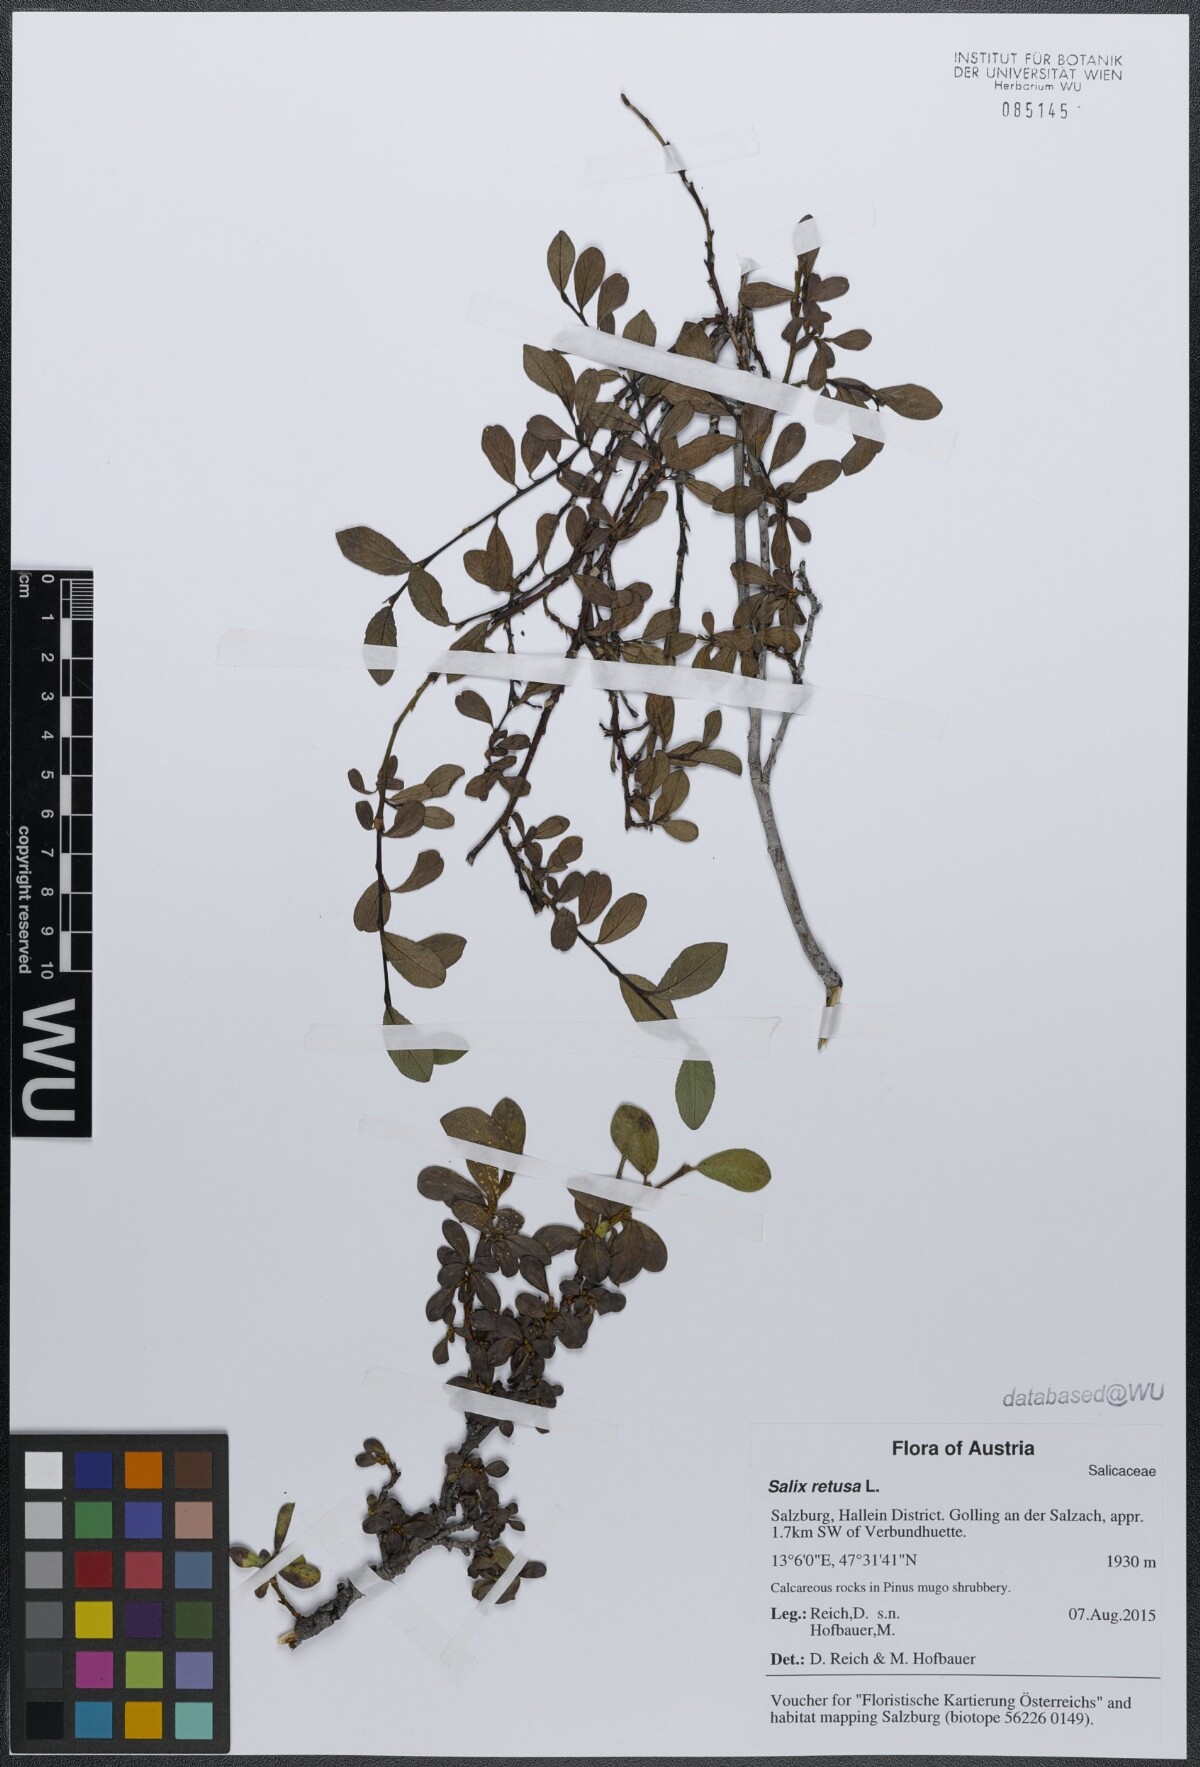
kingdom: Plantae
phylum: Tracheophyta
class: Magnoliopsida
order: Malpighiales
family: Salicaceae
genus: Salix
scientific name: Salix retusa
